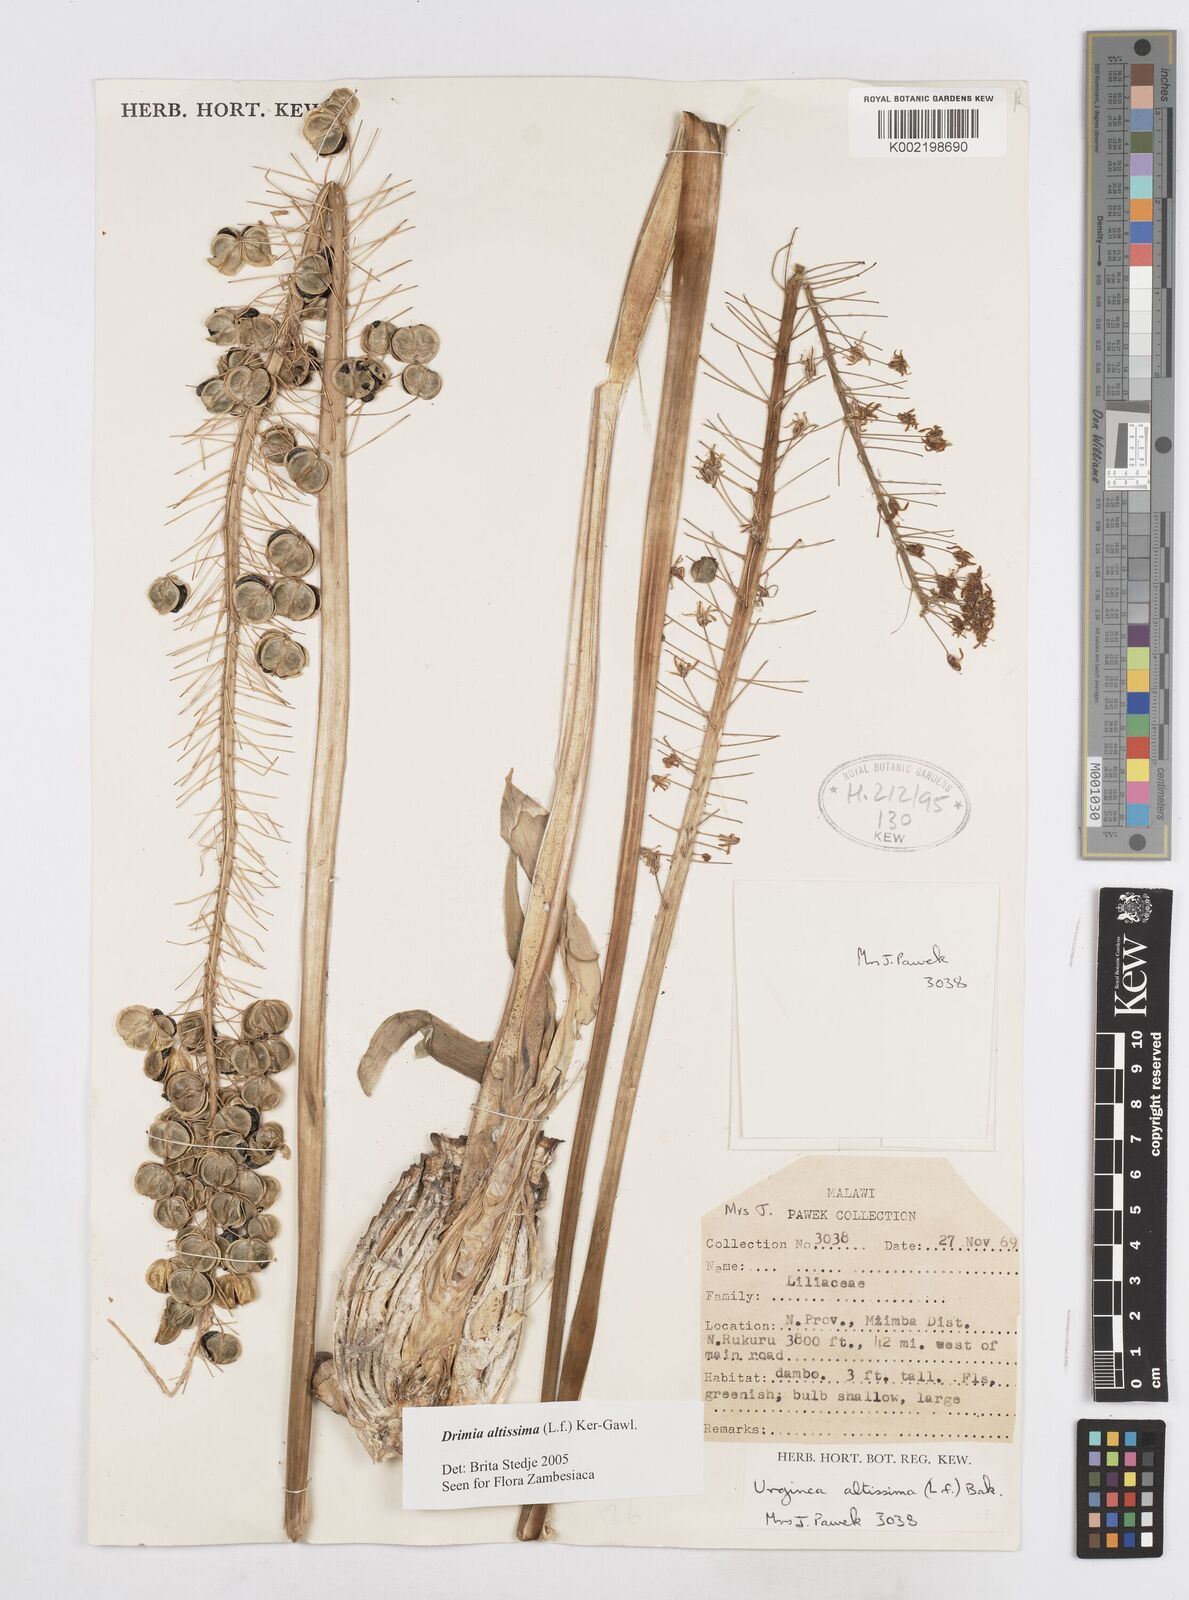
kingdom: Plantae
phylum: Tracheophyta
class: Liliopsida
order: Asparagales
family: Asparagaceae
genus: Drimia
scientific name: Drimia
